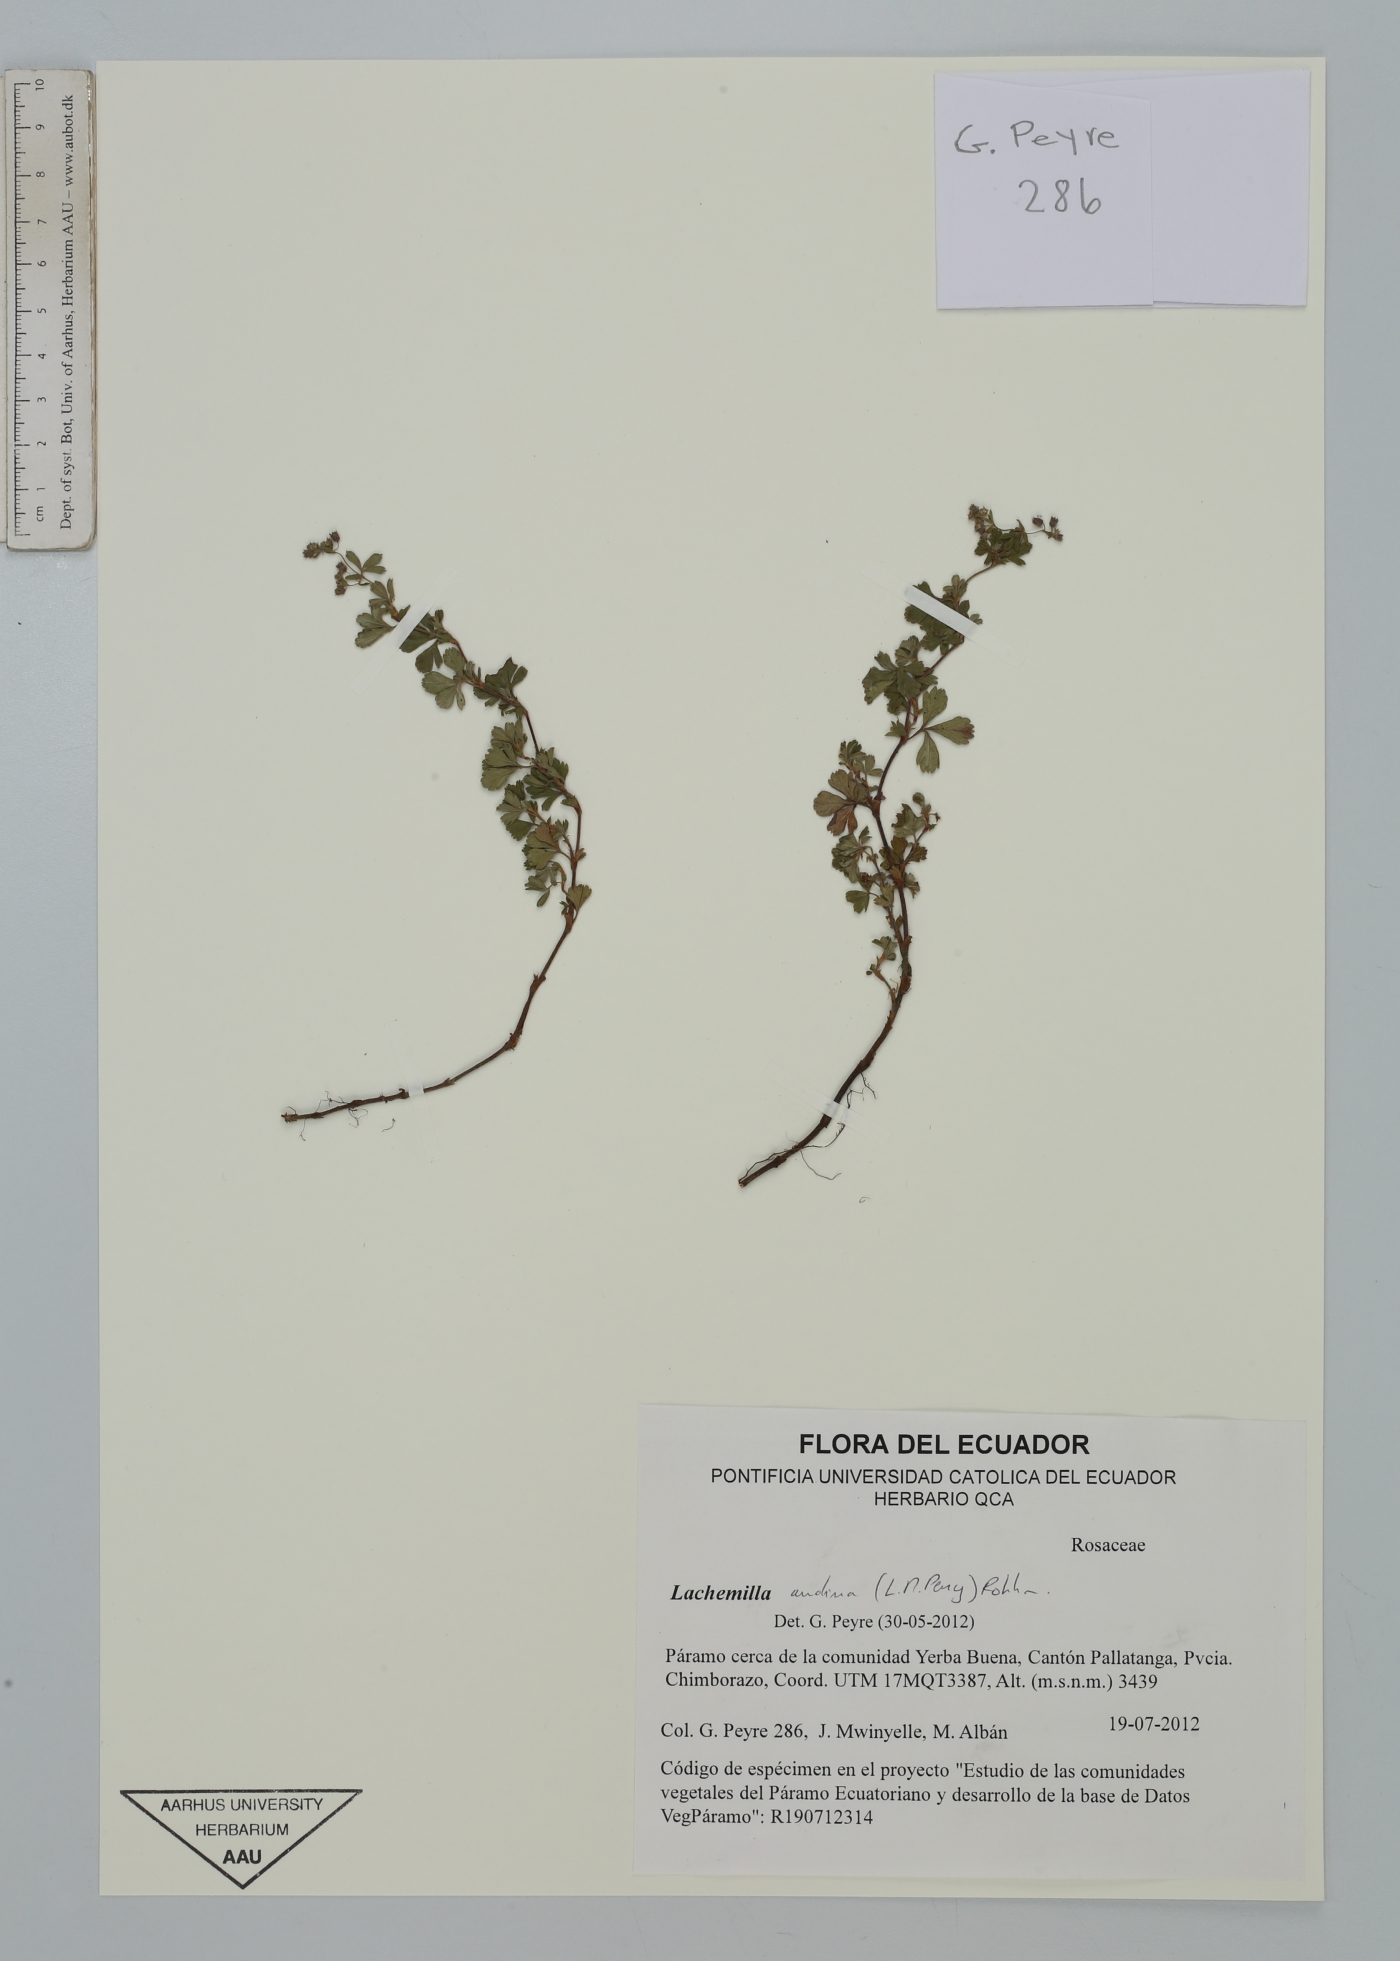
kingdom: Plantae
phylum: Tracheophyta
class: Magnoliopsida
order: Rosales
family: Rosaceae
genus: Lachemilla
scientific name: Lachemilla andina
